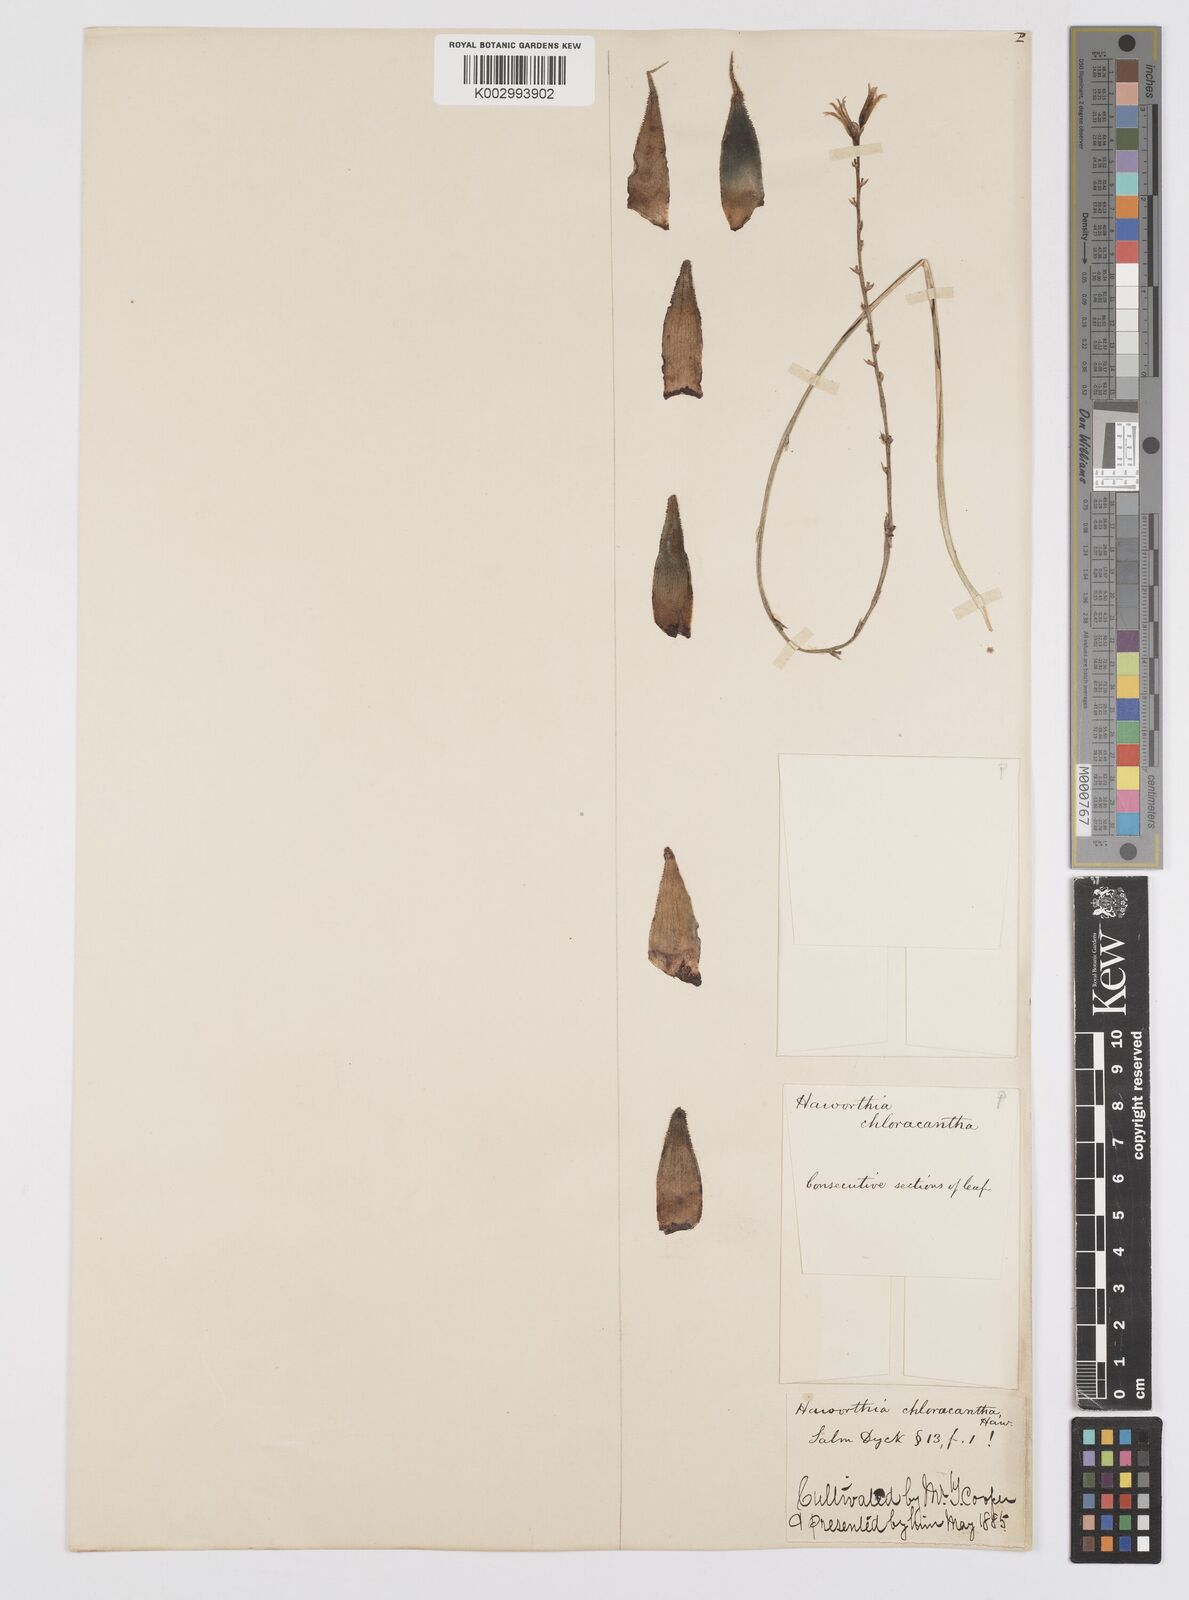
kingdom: Plantae
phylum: Tracheophyta
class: Liliopsida
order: Asparagales
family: Asphodelaceae
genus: Haworthia
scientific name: Haworthia chloracantha
